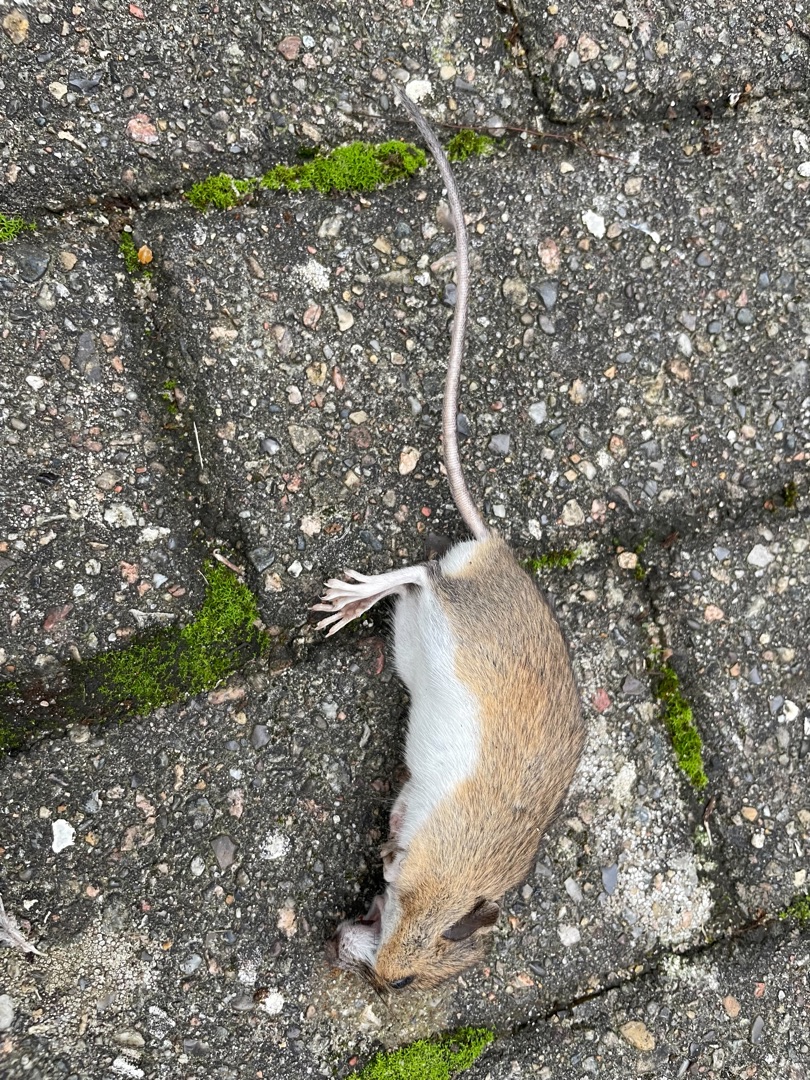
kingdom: Animalia
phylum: Chordata
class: Mammalia
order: Rodentia
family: Muridae
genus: Apodemus
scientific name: Apodemus flavicollis
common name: Halsbåndmus
